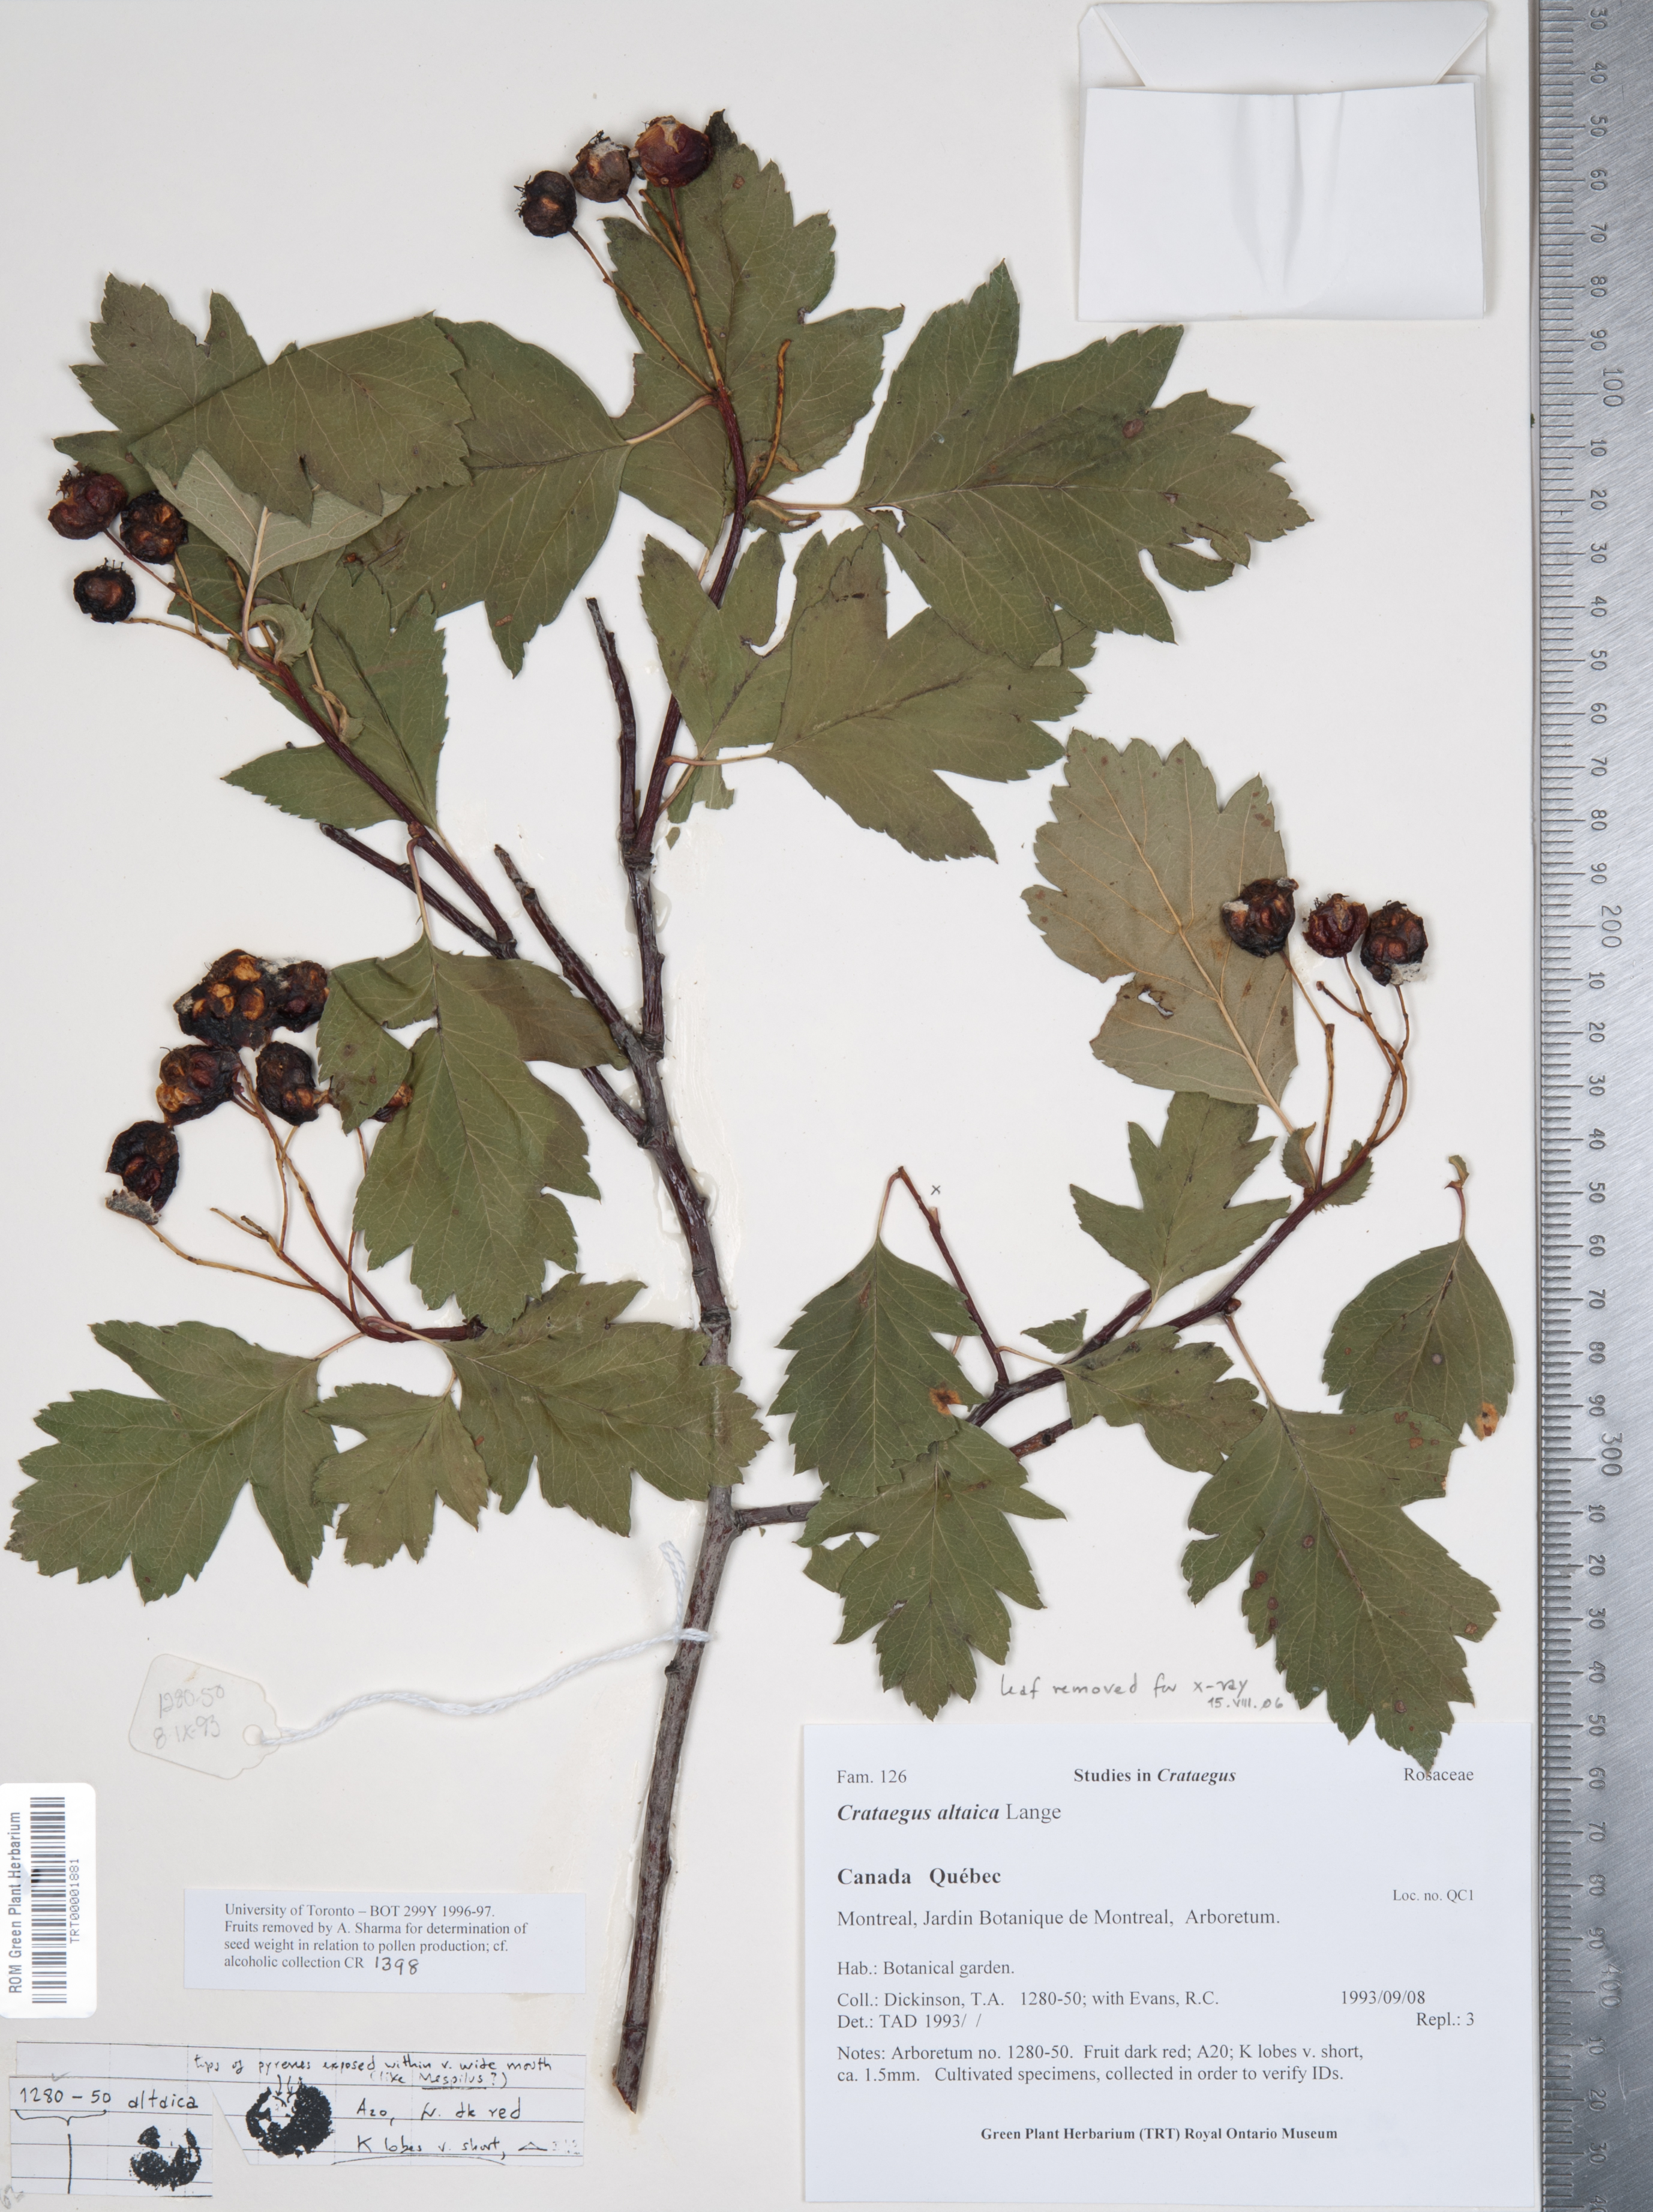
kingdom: Plantae
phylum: Tracheophyta
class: Magnoliopsida
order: Rosales
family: Rosaceae
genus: Crataegus
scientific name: Crataegus chlorocarpa
